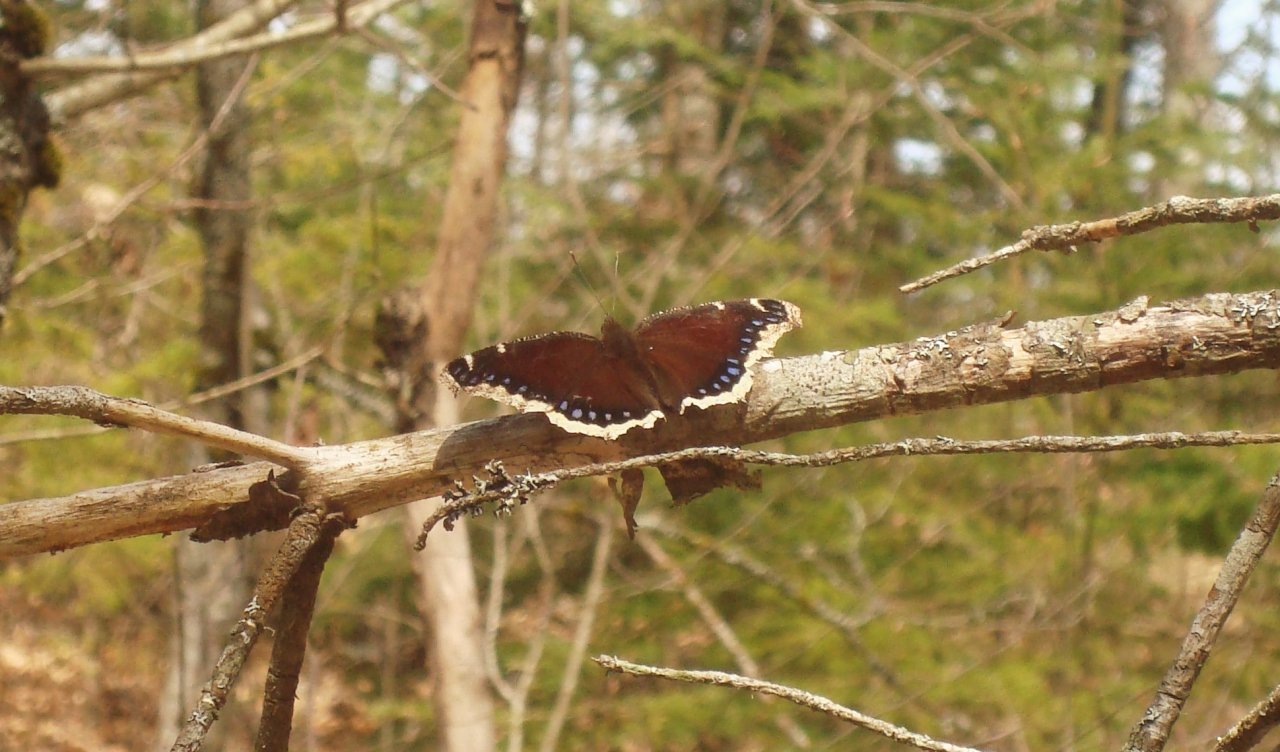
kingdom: Animalia
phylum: Arthropoda
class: Insecta
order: Lepidoptera
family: Nymphalidae
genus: Nymphalis
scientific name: Nymphalis antiopa
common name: Mourning Cloak
